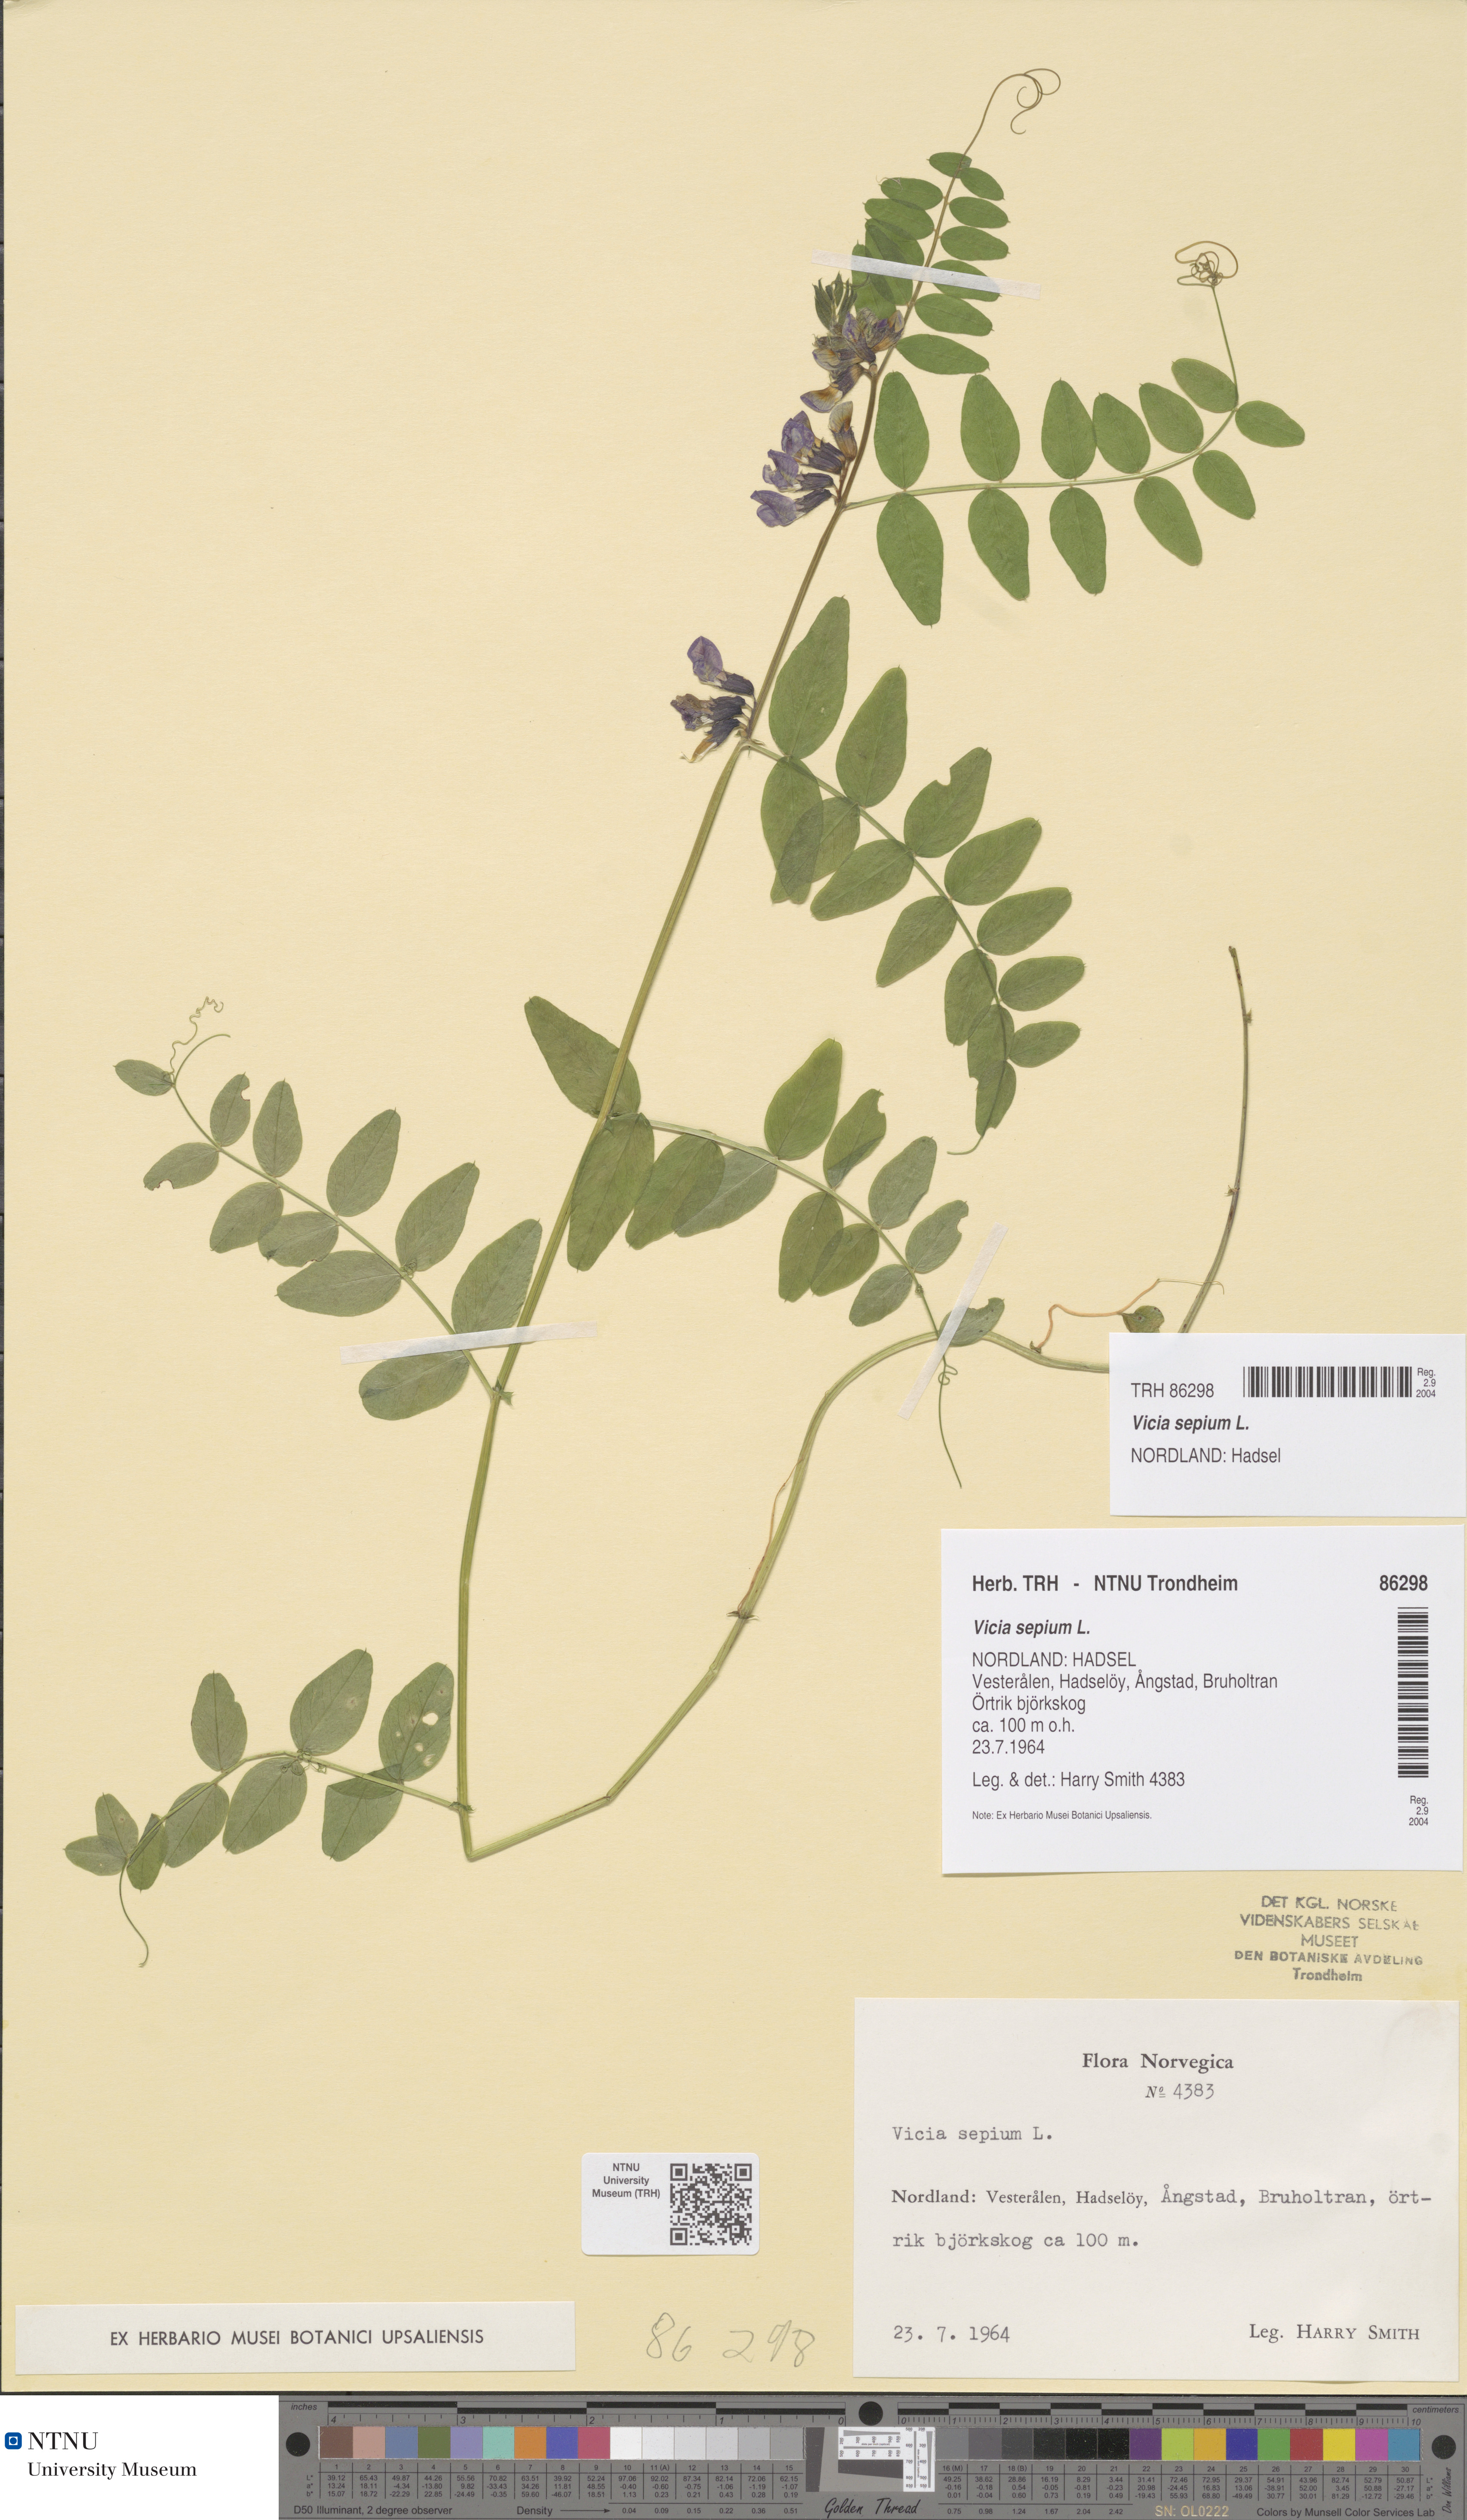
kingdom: Plantae
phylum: Tracheophyta
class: Magnoliopsida
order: Fabales
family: Fabaceae
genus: Vicia
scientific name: Vicia sepium
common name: Bush vetch
